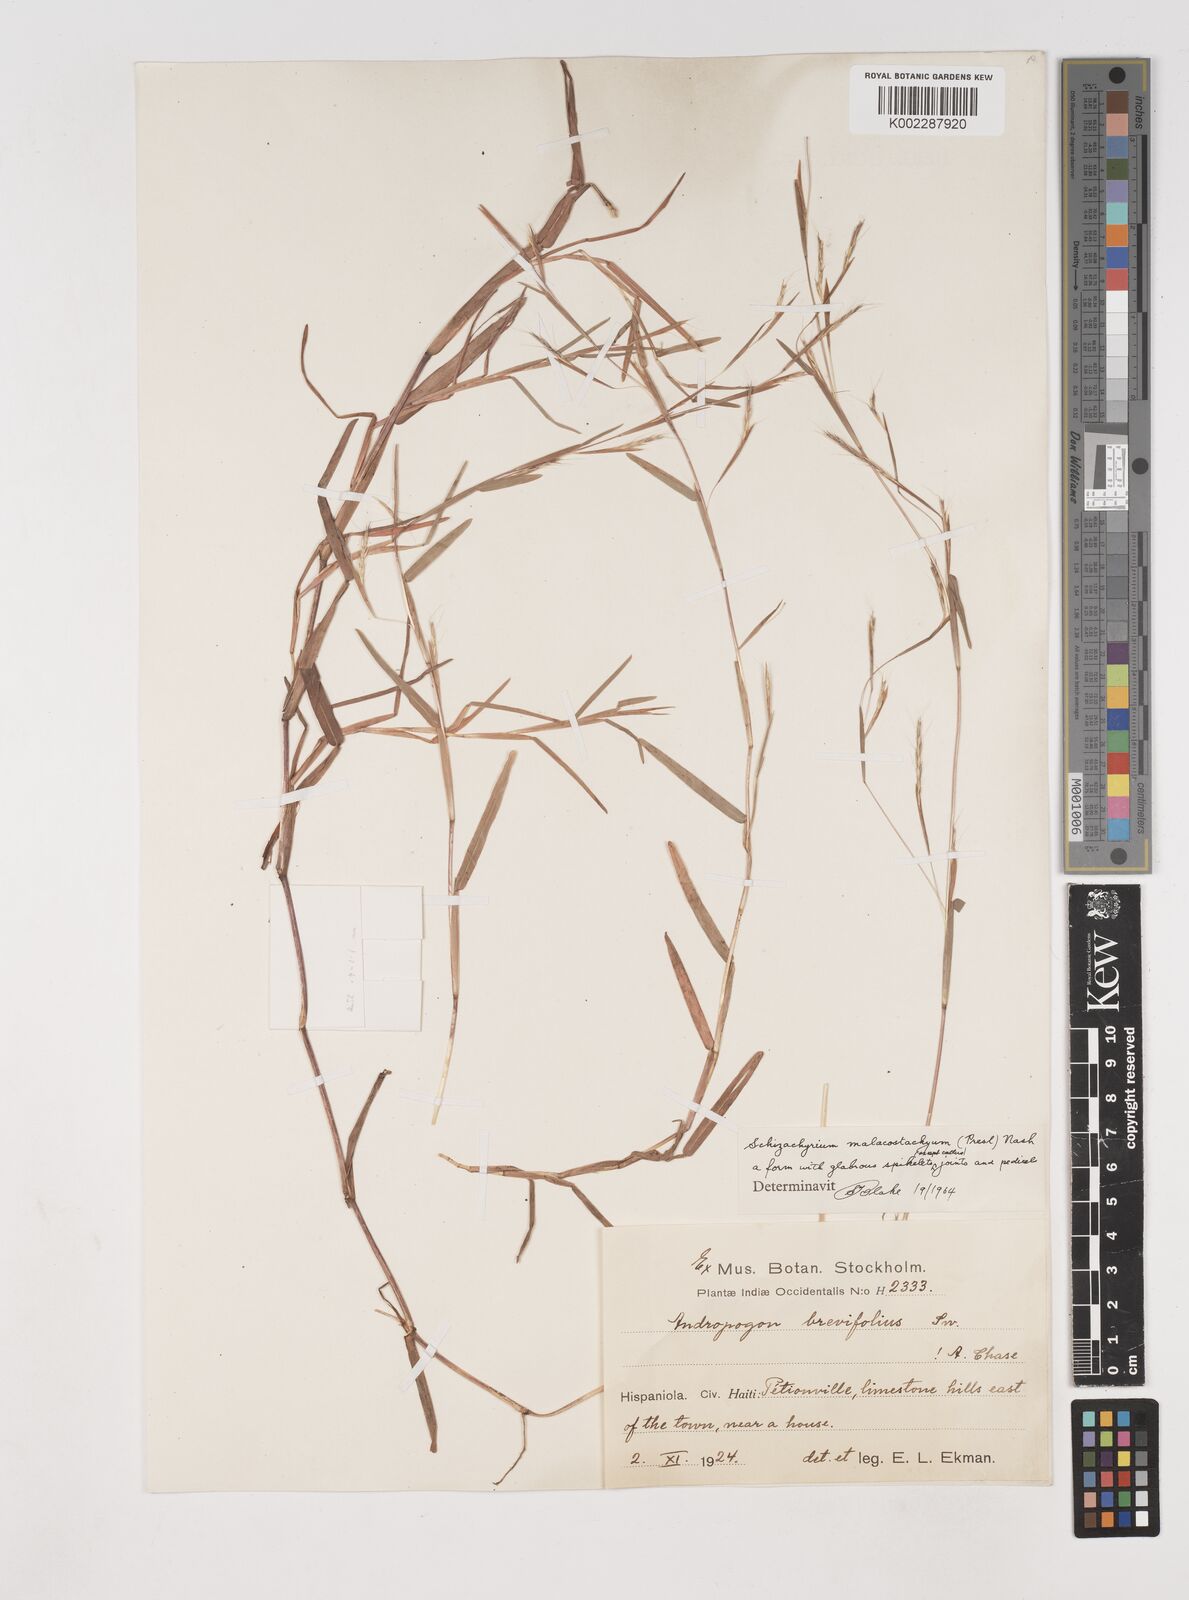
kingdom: Plantae
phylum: Tracheophyta
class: Liliopsida
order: Poales
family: Poaceae
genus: Schizachyrium
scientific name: Schizachyrium malacostachyum
